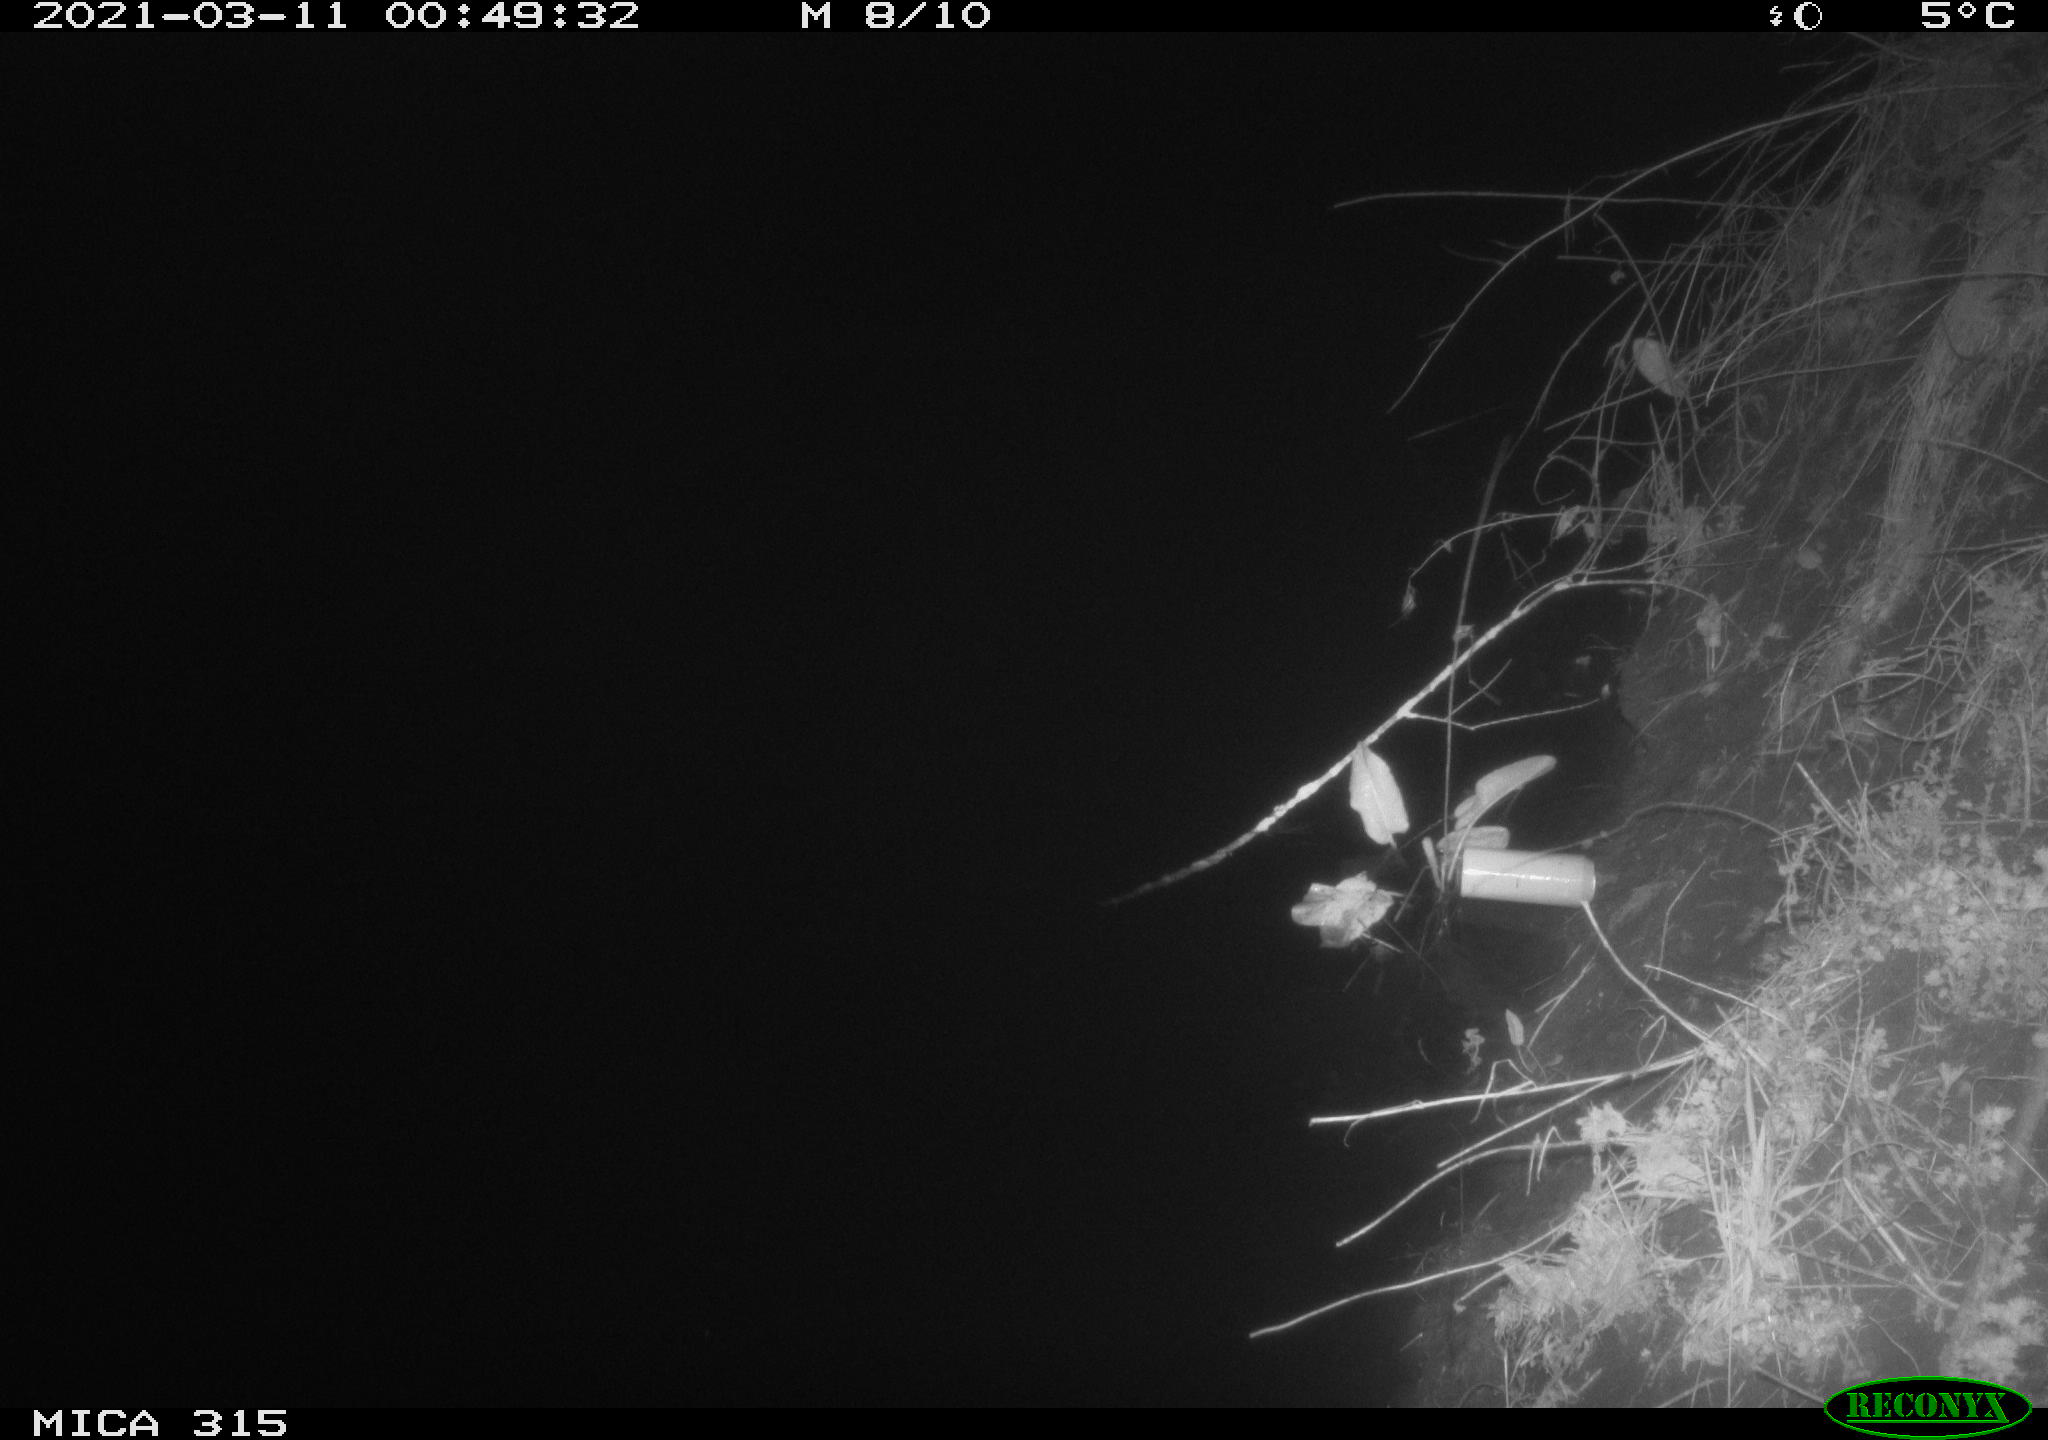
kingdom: Animalia
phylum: Chordata
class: Mammalia
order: Rodentia
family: Muridae
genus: Rattus
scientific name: Rattus norvegicus
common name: Brown rat
